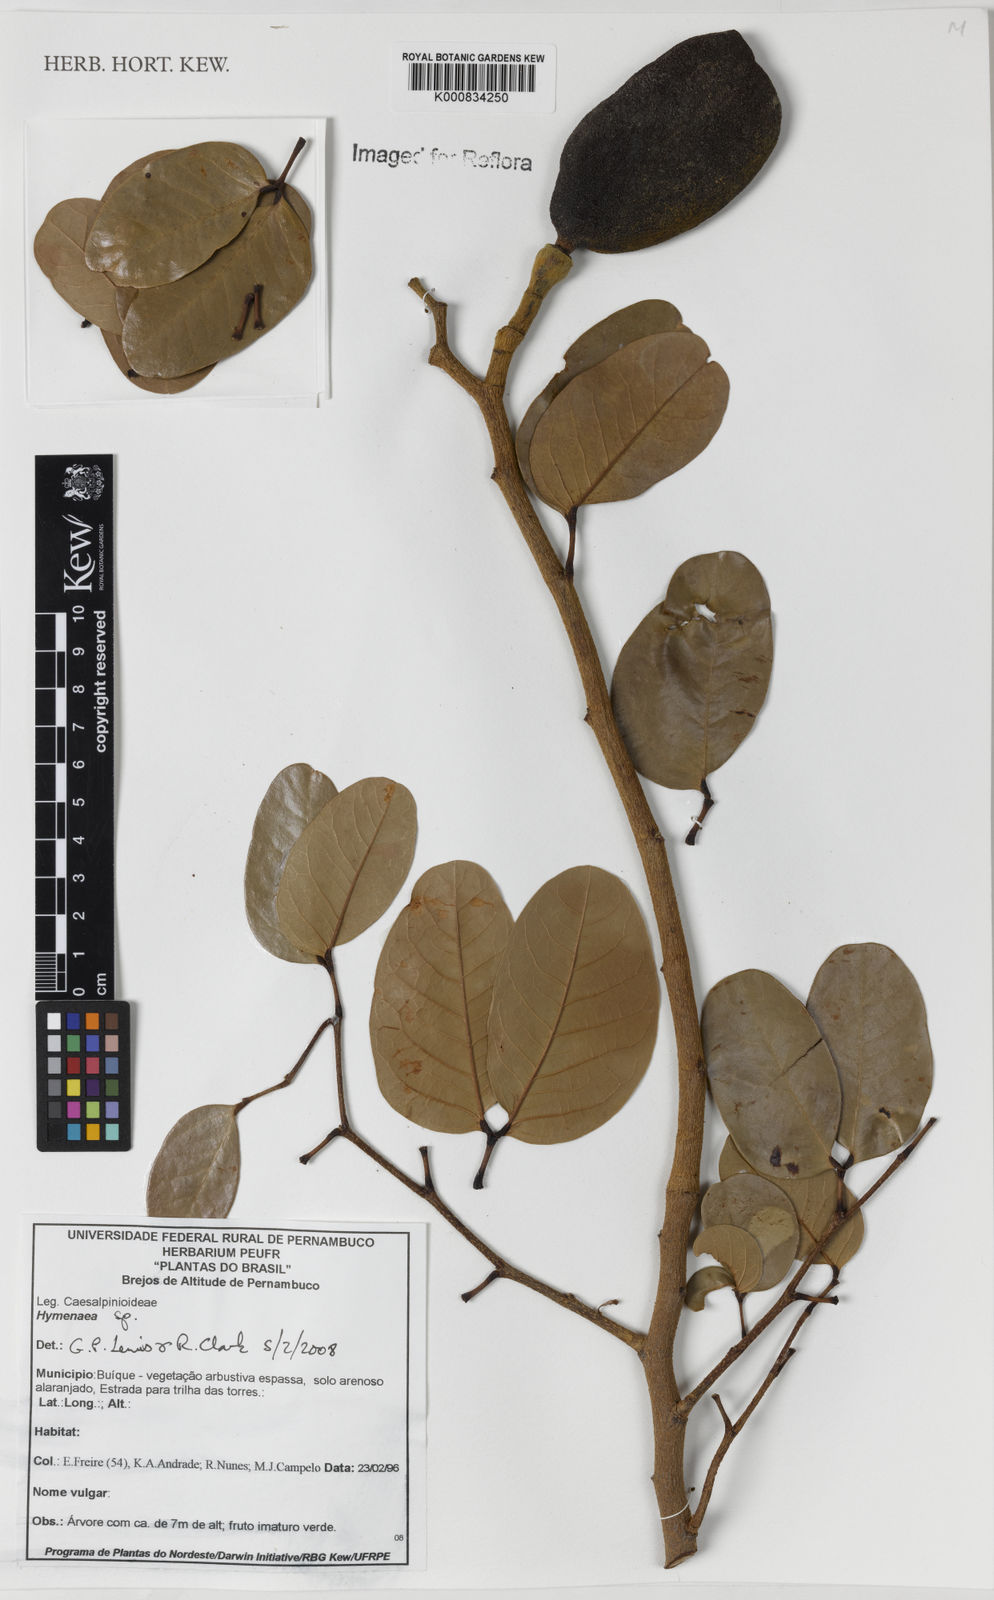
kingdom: Plantae
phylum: Tracheophyta
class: Magnoliopsida
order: Fabales
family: Fabaceae
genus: Hymenaea
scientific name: Hymenaea
